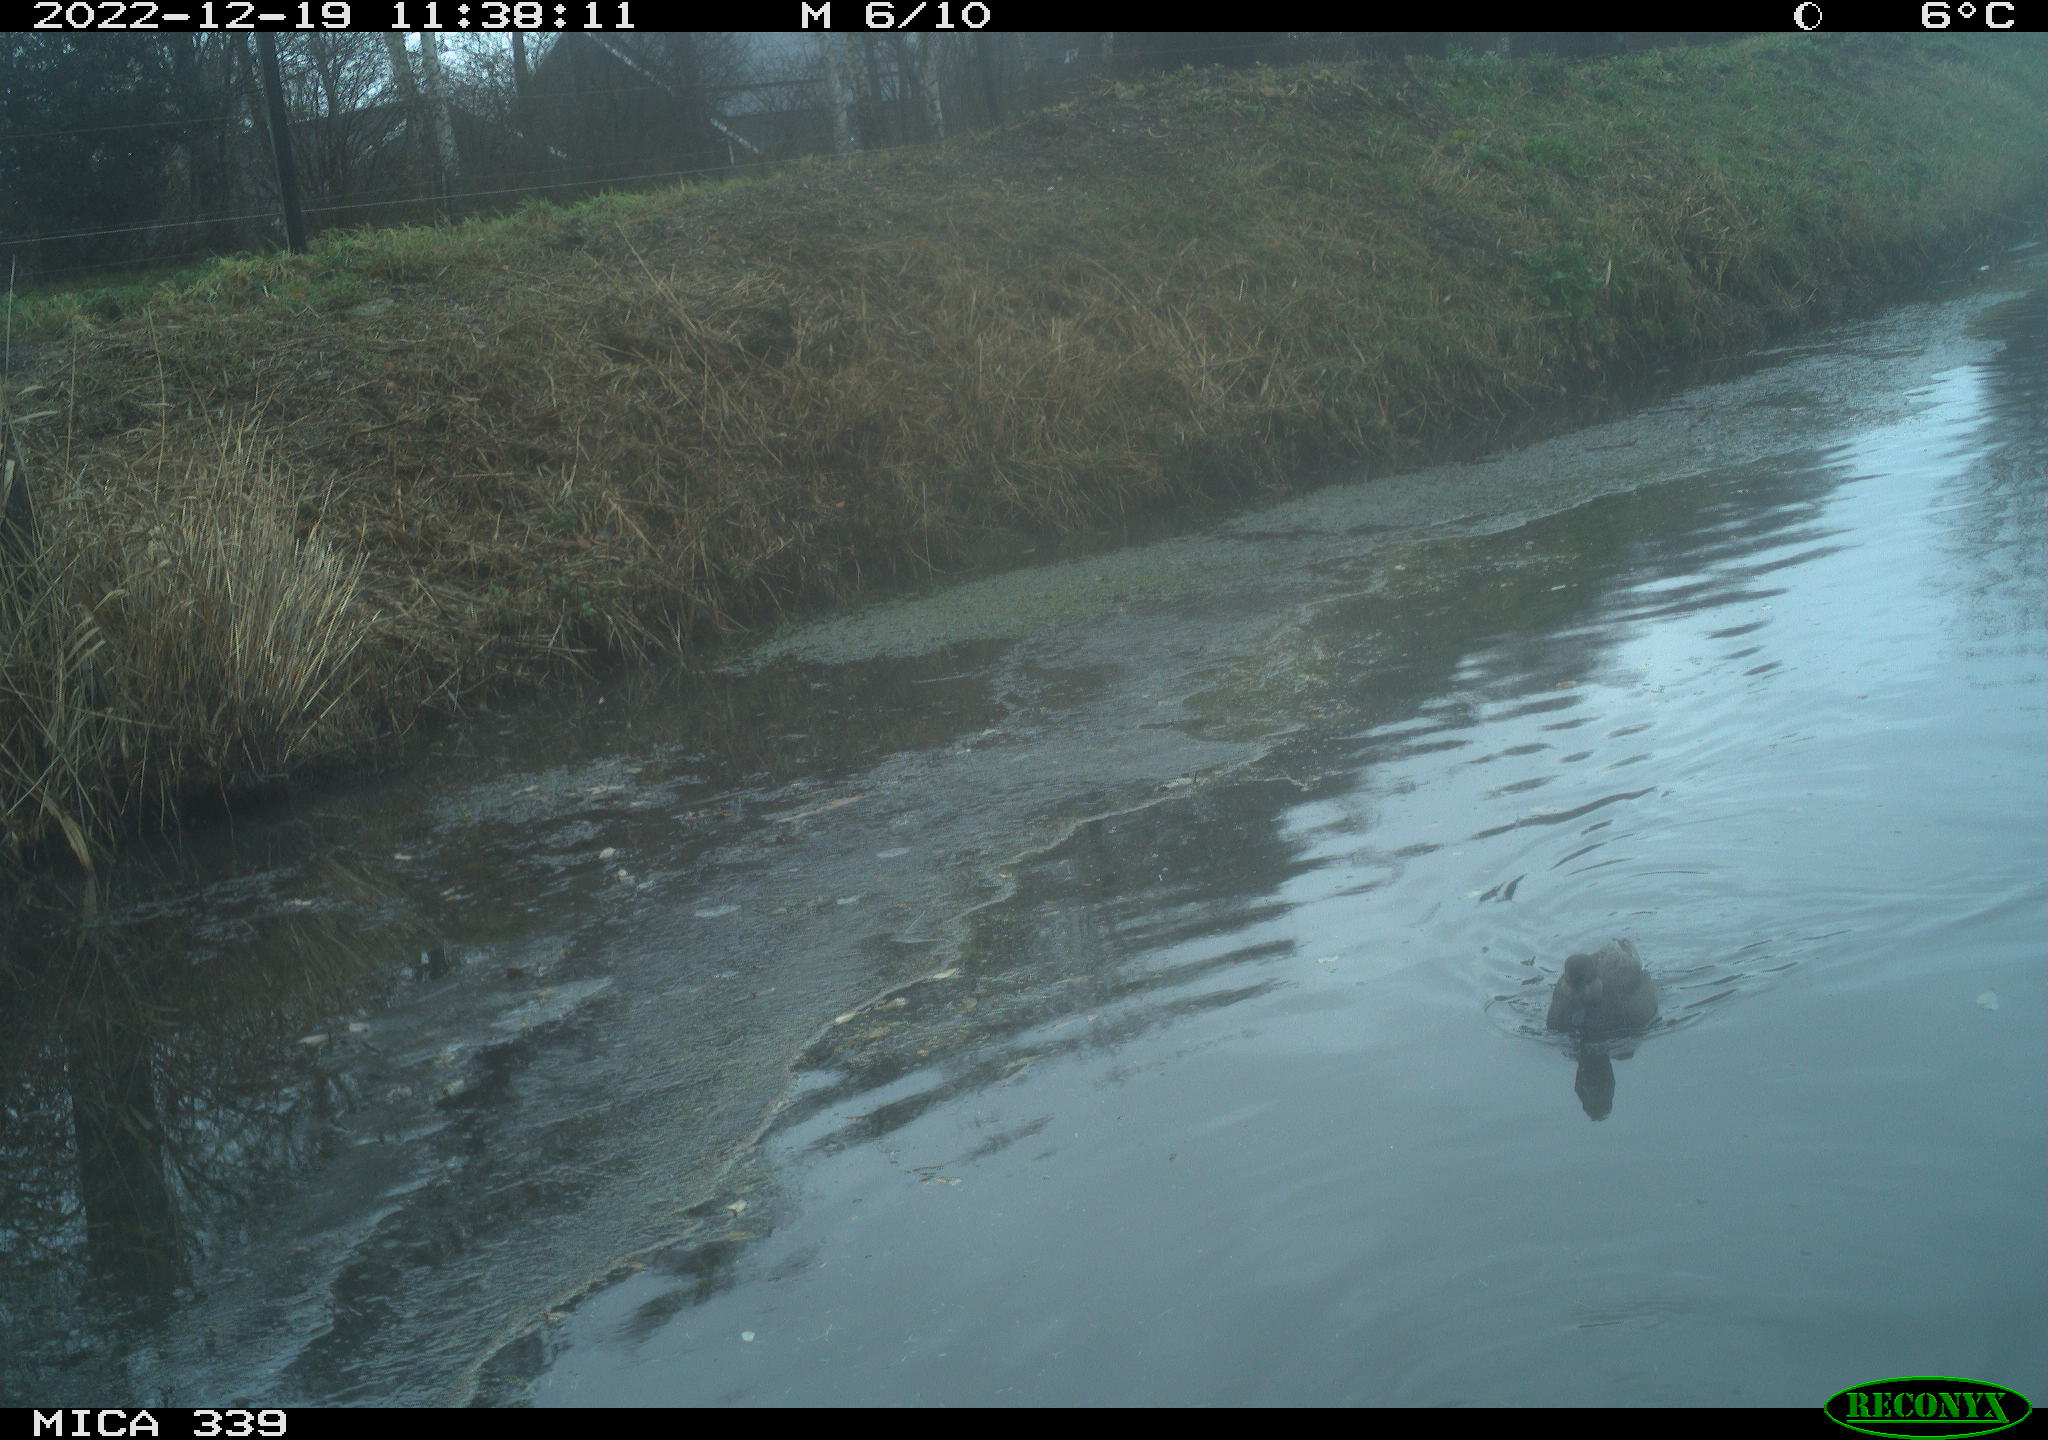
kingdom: Animalia
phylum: Chordata
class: Aves
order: Anseriformes
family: Anatidae
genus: Anas
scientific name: Anas
